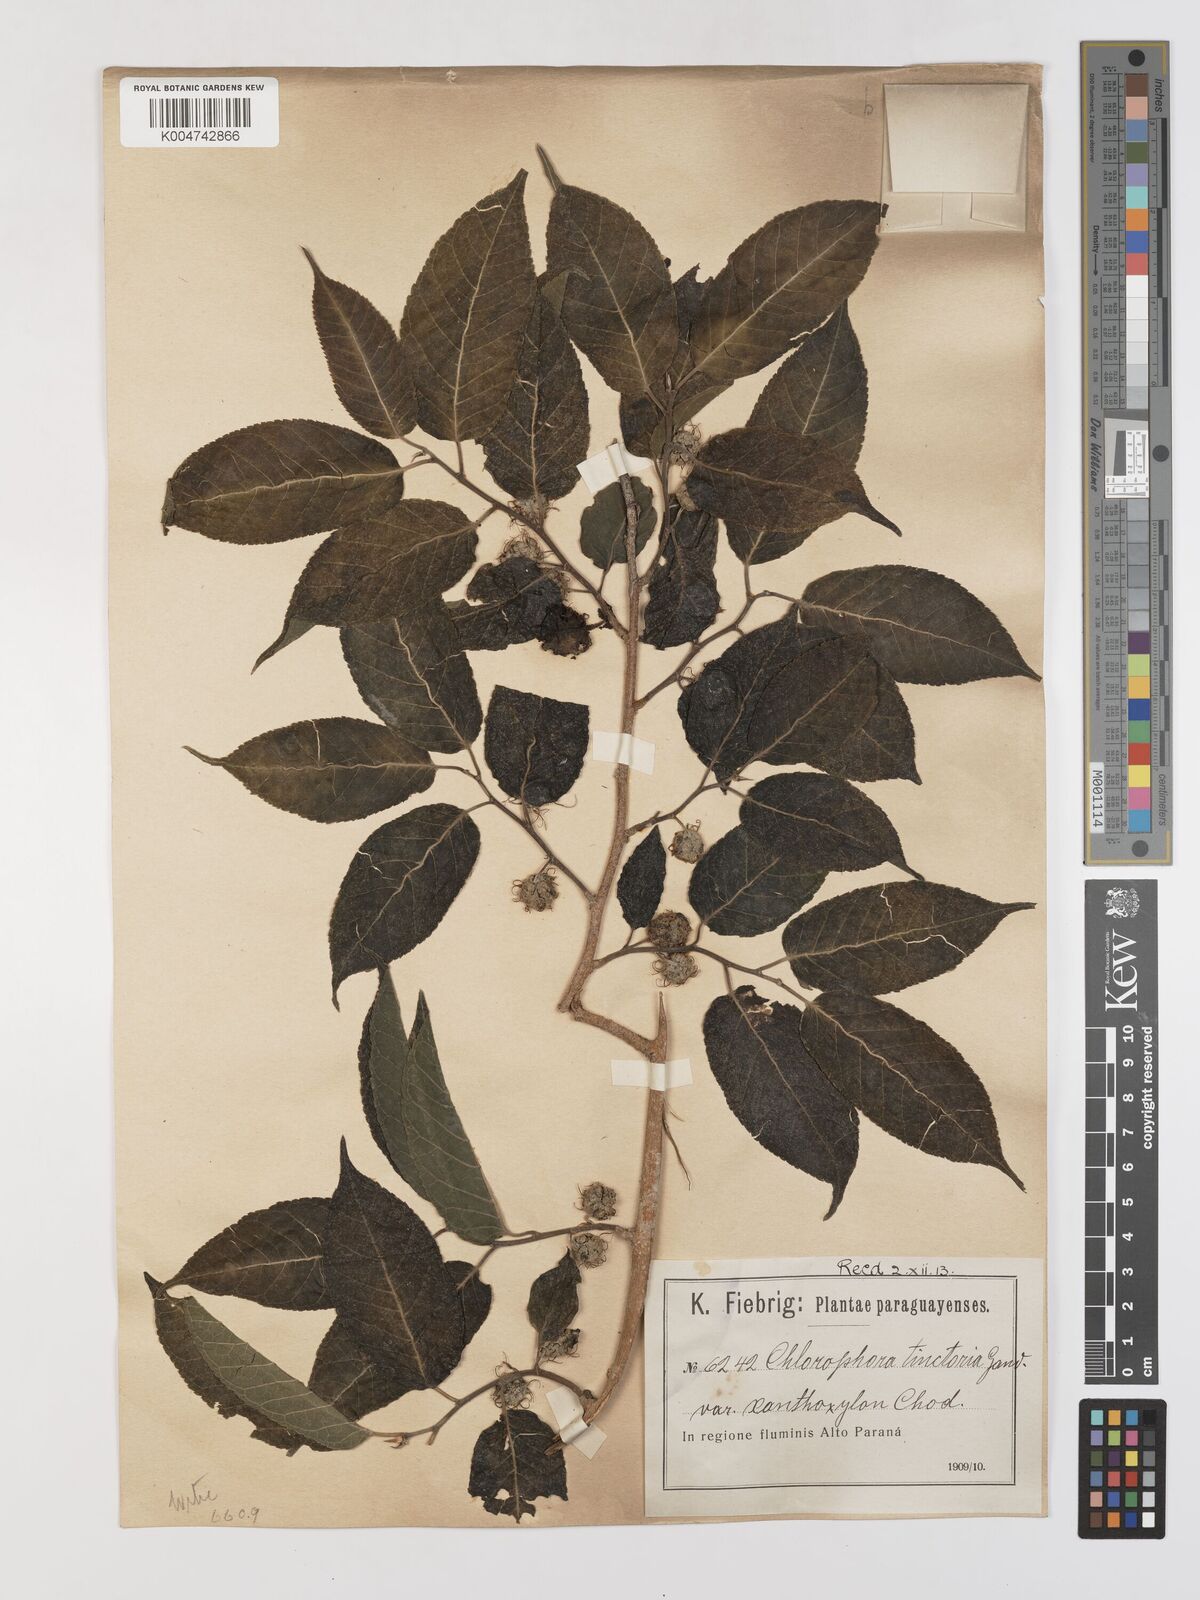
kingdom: Plantae
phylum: Tracheophyta
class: Magnoliopsida
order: Rosales
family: Moraceae
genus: Maclura
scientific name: Maclura tinctoria
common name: Old fustic
